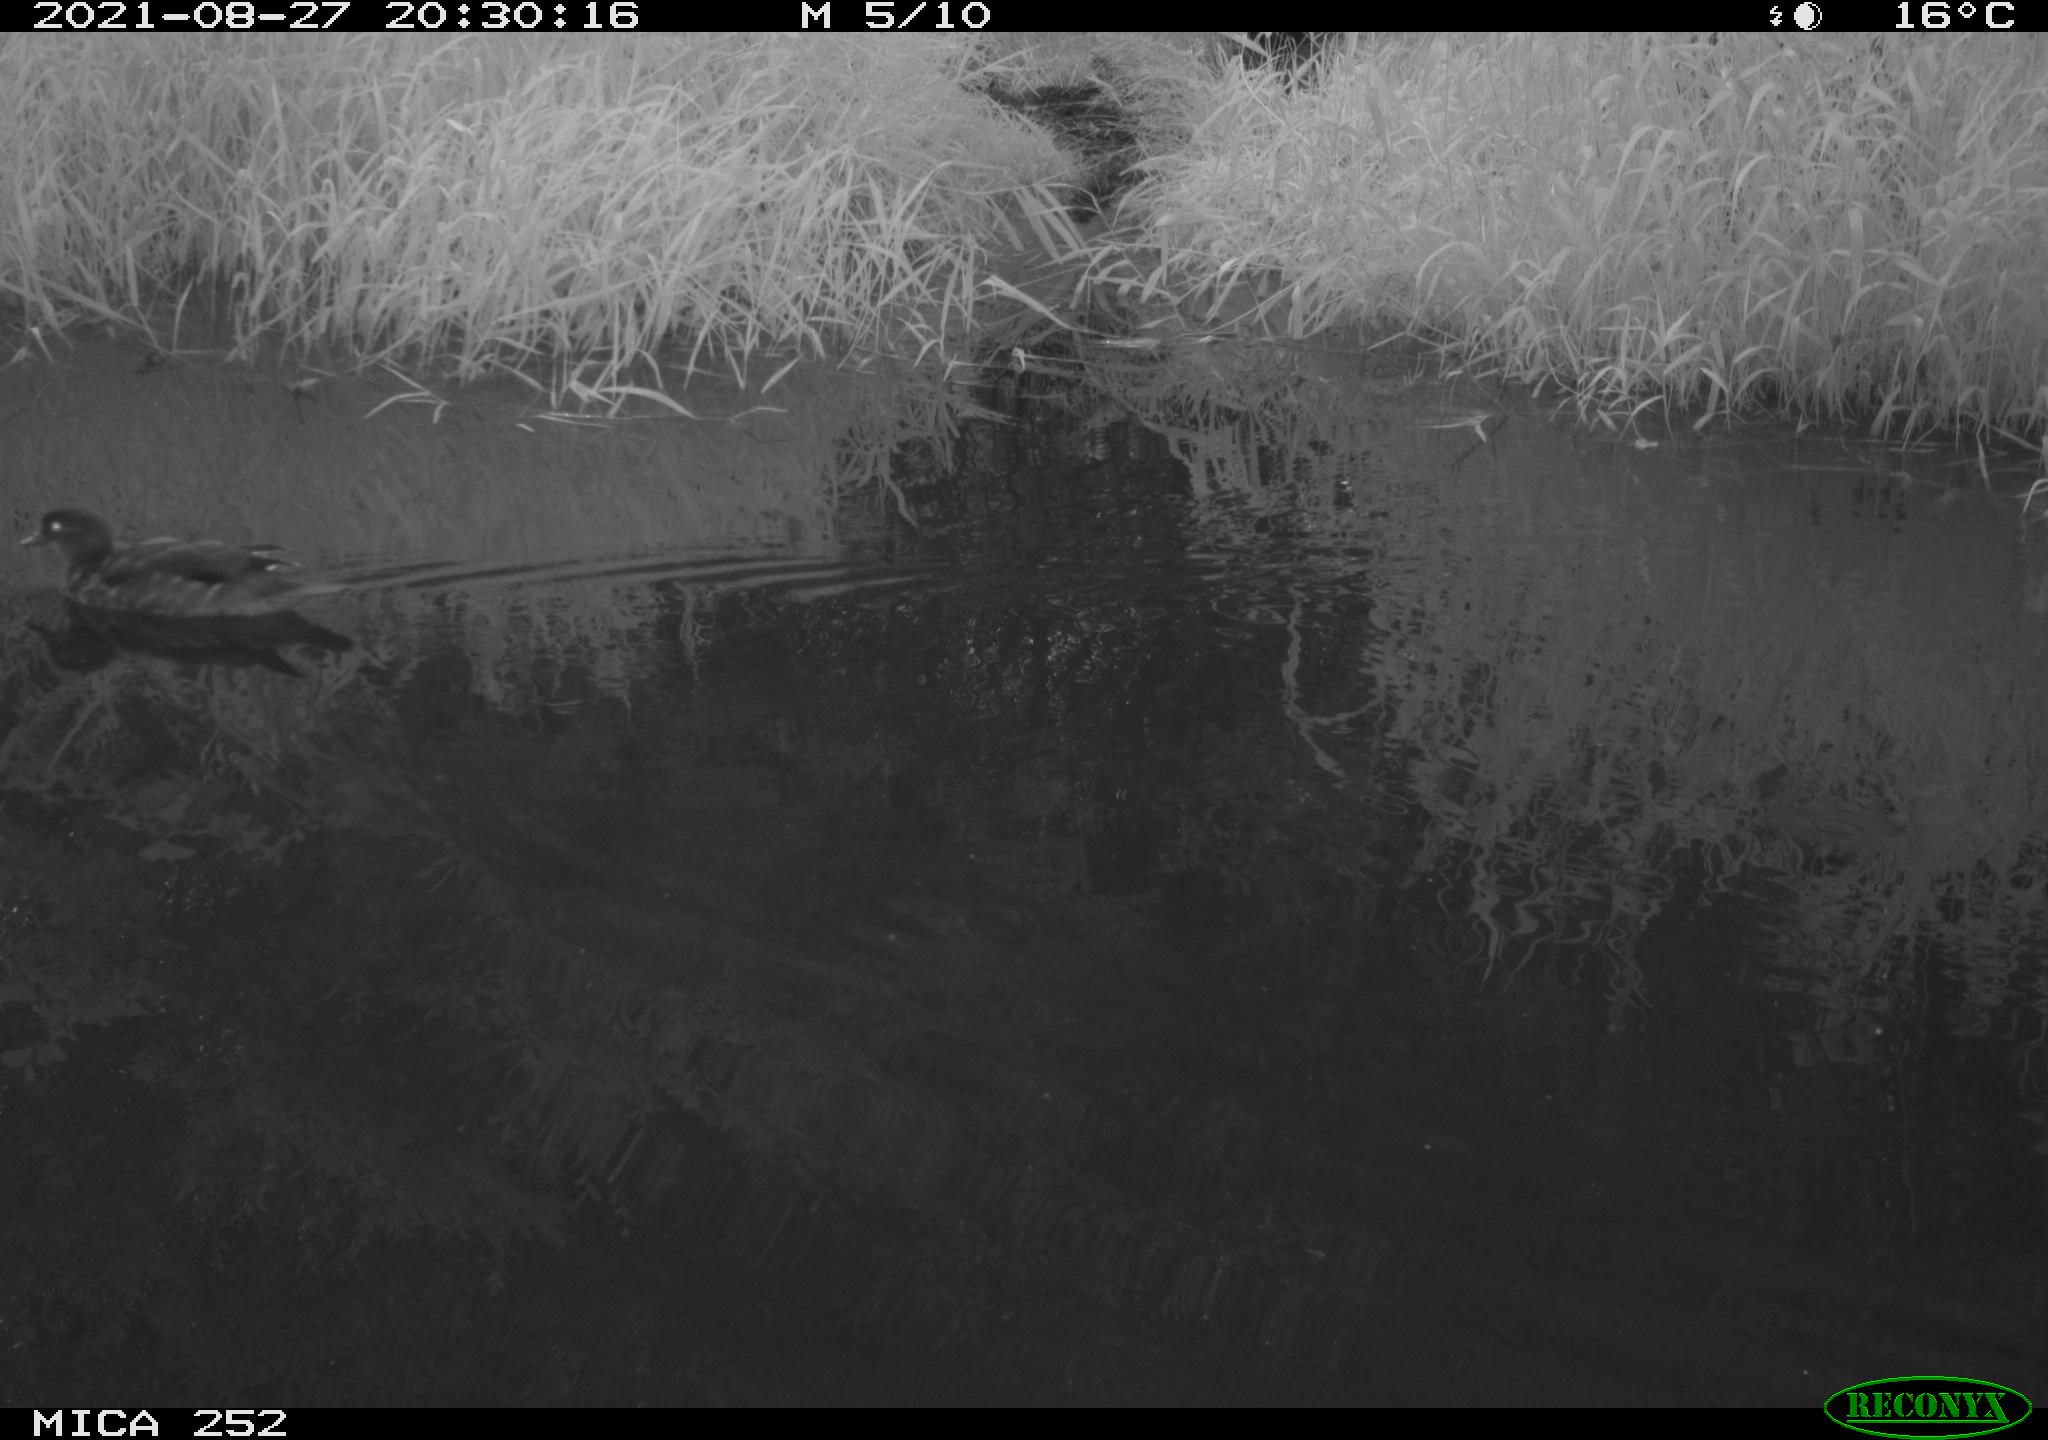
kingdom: Animalia
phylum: Chordata
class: Aves
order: Anseriformes
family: Anatidae
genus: Anas
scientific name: Anas
